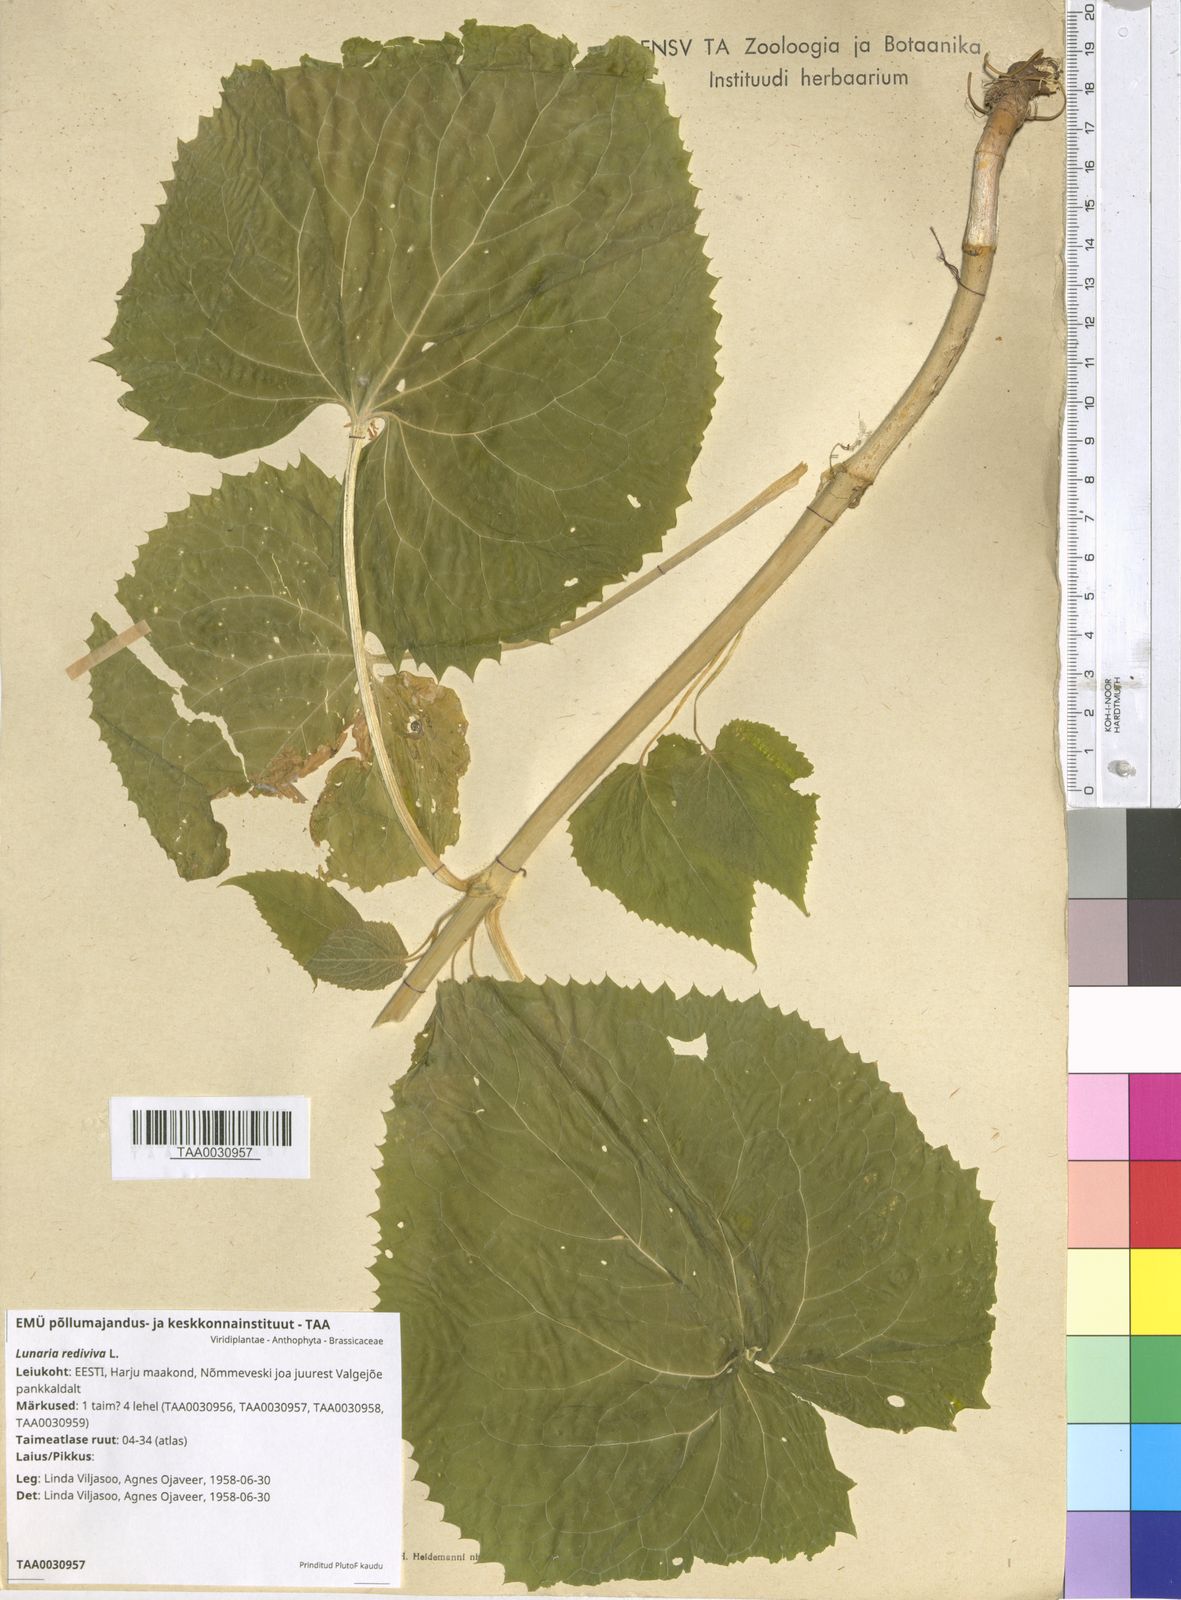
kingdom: Plantae
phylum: Tracheophyta
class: Magnoliopsida
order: Brassicales
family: Brassicaceae
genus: Lunaria
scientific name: Lunaria rediviva
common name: Perennial honesty
